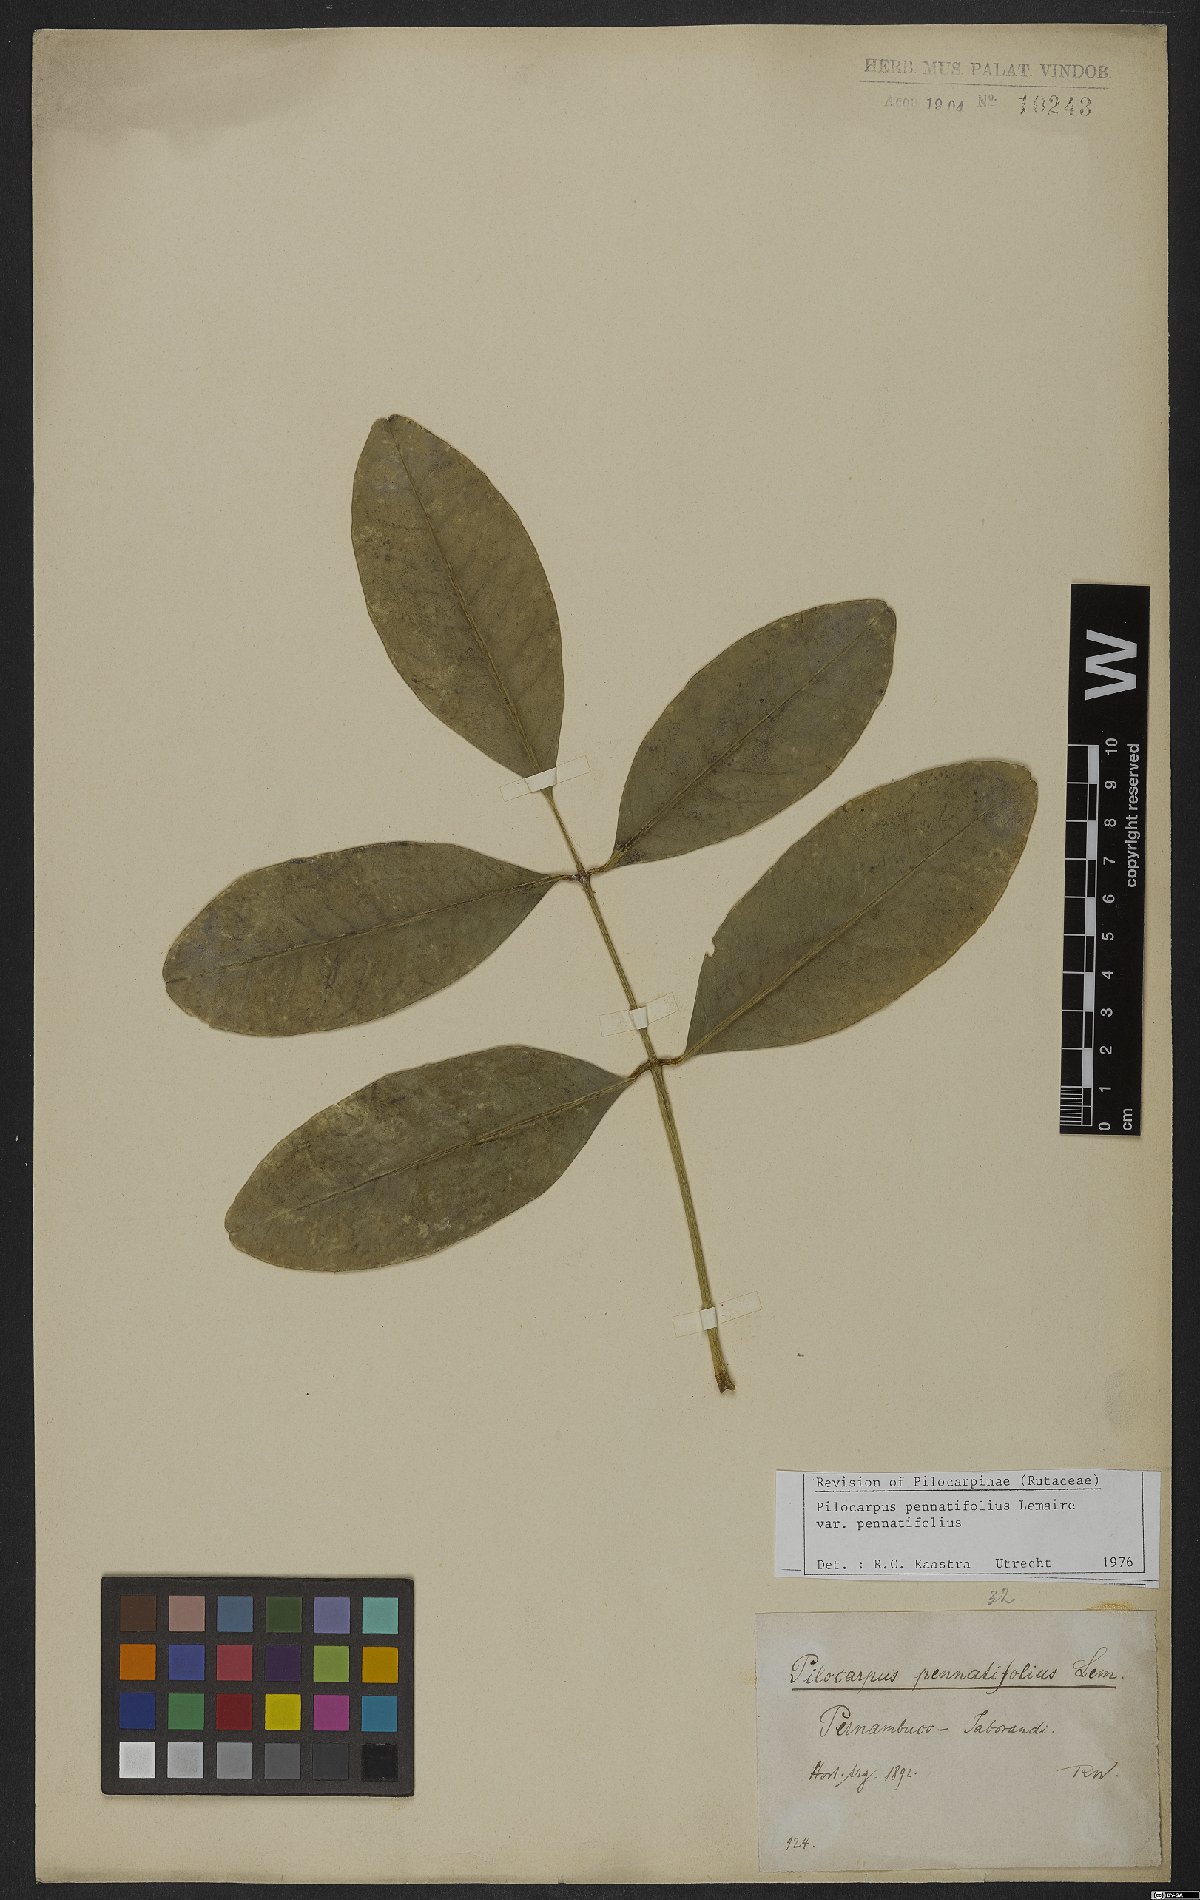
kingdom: Plantae
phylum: Tracheophyta
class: Magnoliopsida
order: Sapindales
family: Rutaceae
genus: Pilocarpus
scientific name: Pilocarpus pennatifolius
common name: Paraguay jaborandi
